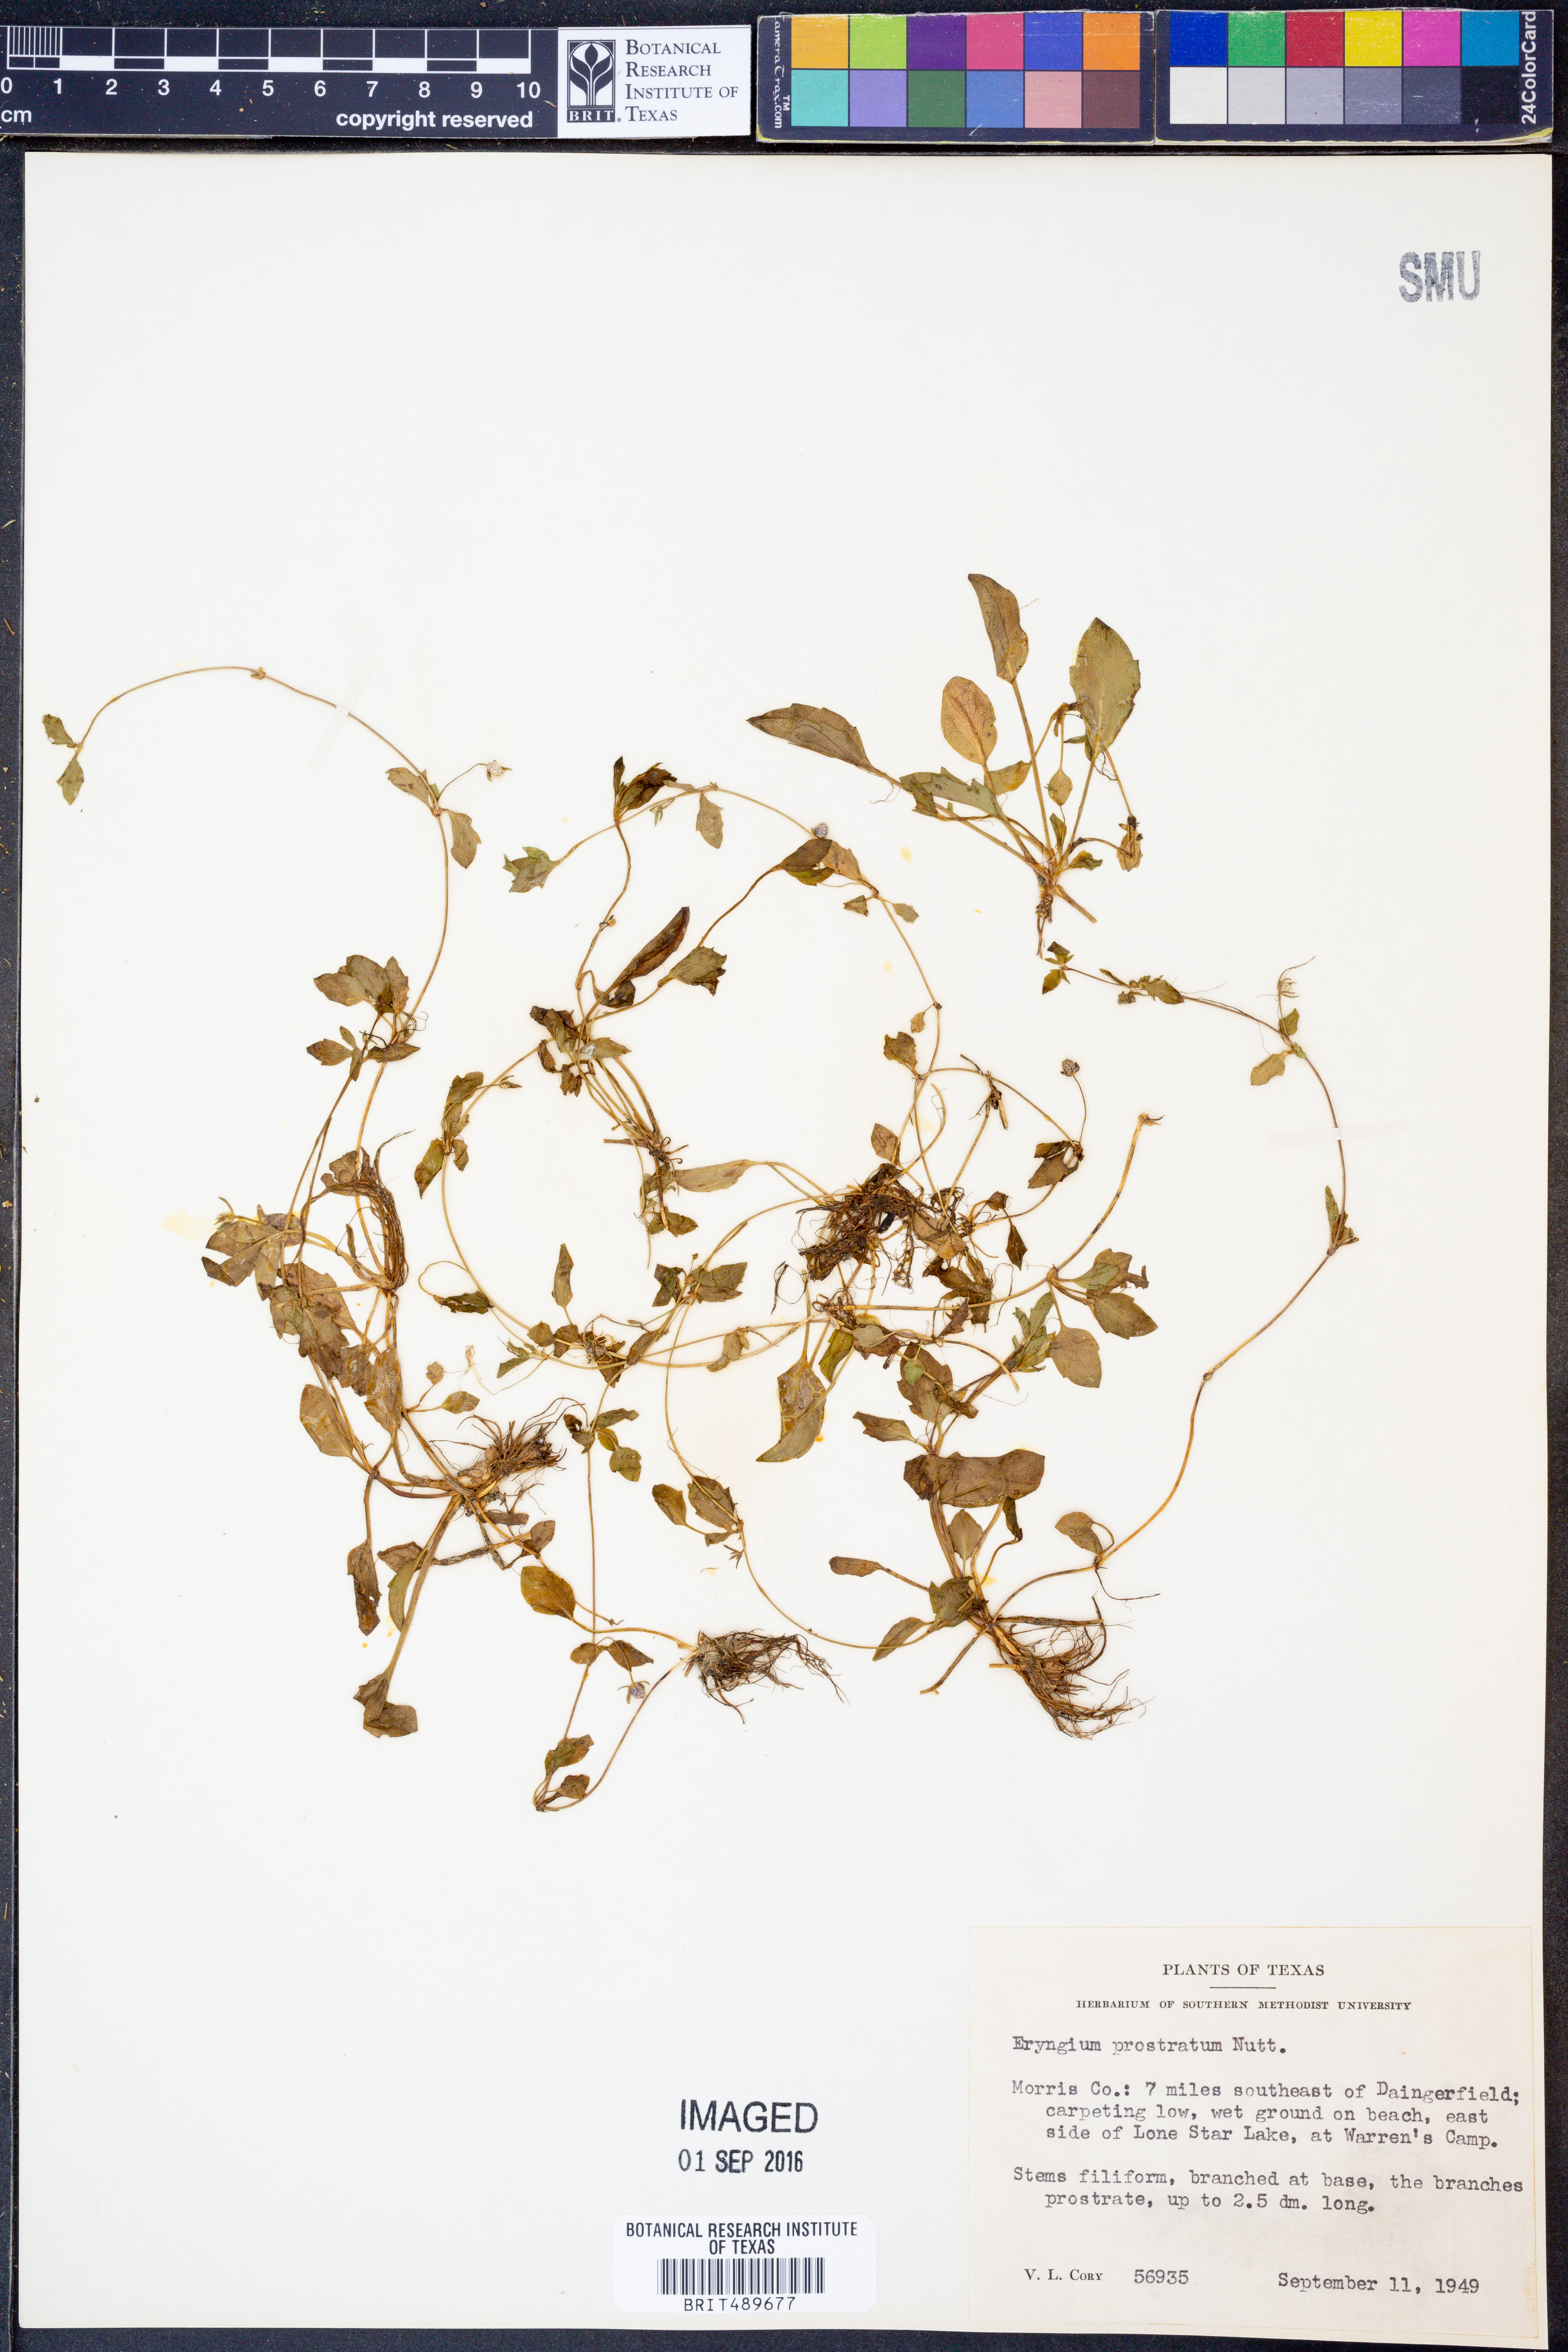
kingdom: Plantae
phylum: Tracheophyta
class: Magnoliopsida
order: Apiales
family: Apiaceae
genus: Eryngium
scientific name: Eryngium prostratum
